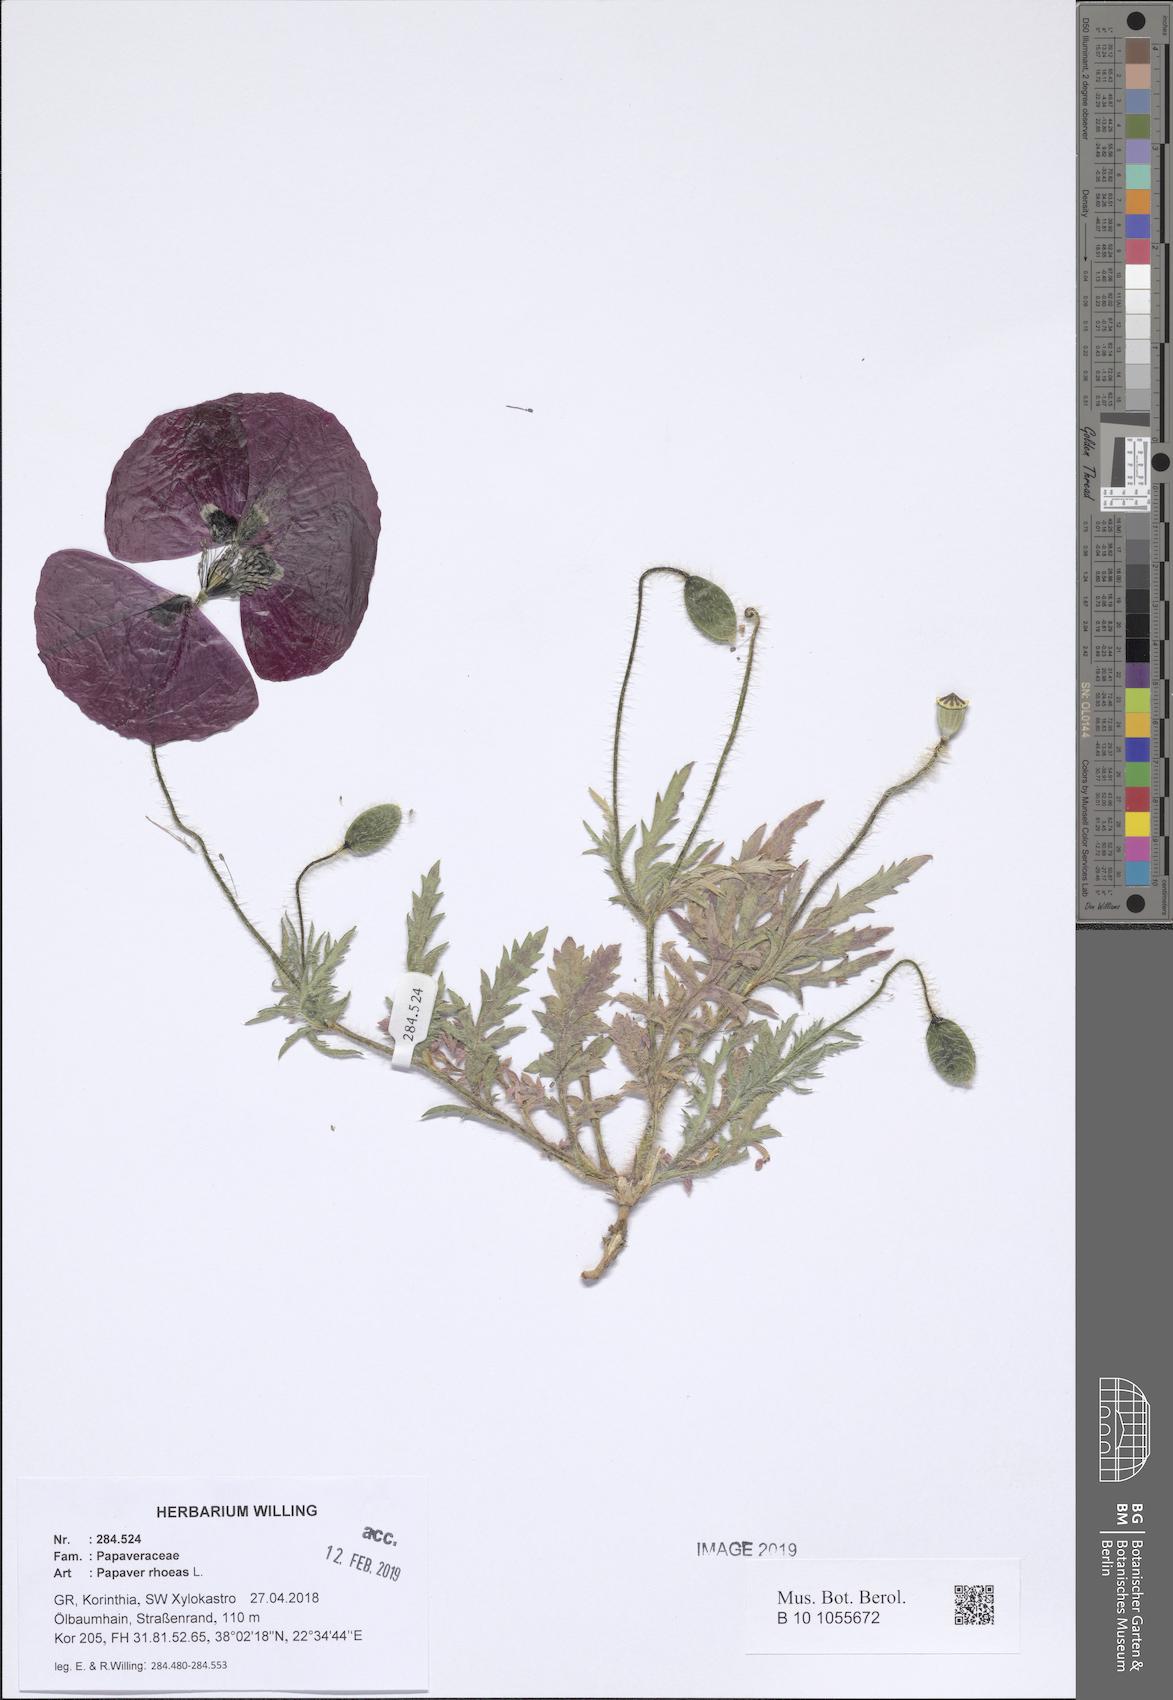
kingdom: Plantae
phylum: Tracheophyta
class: Magnoliopsida
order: Ranunculales
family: Papaveraceae
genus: Papaver
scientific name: Papaver rhoeas
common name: Corn poppy
